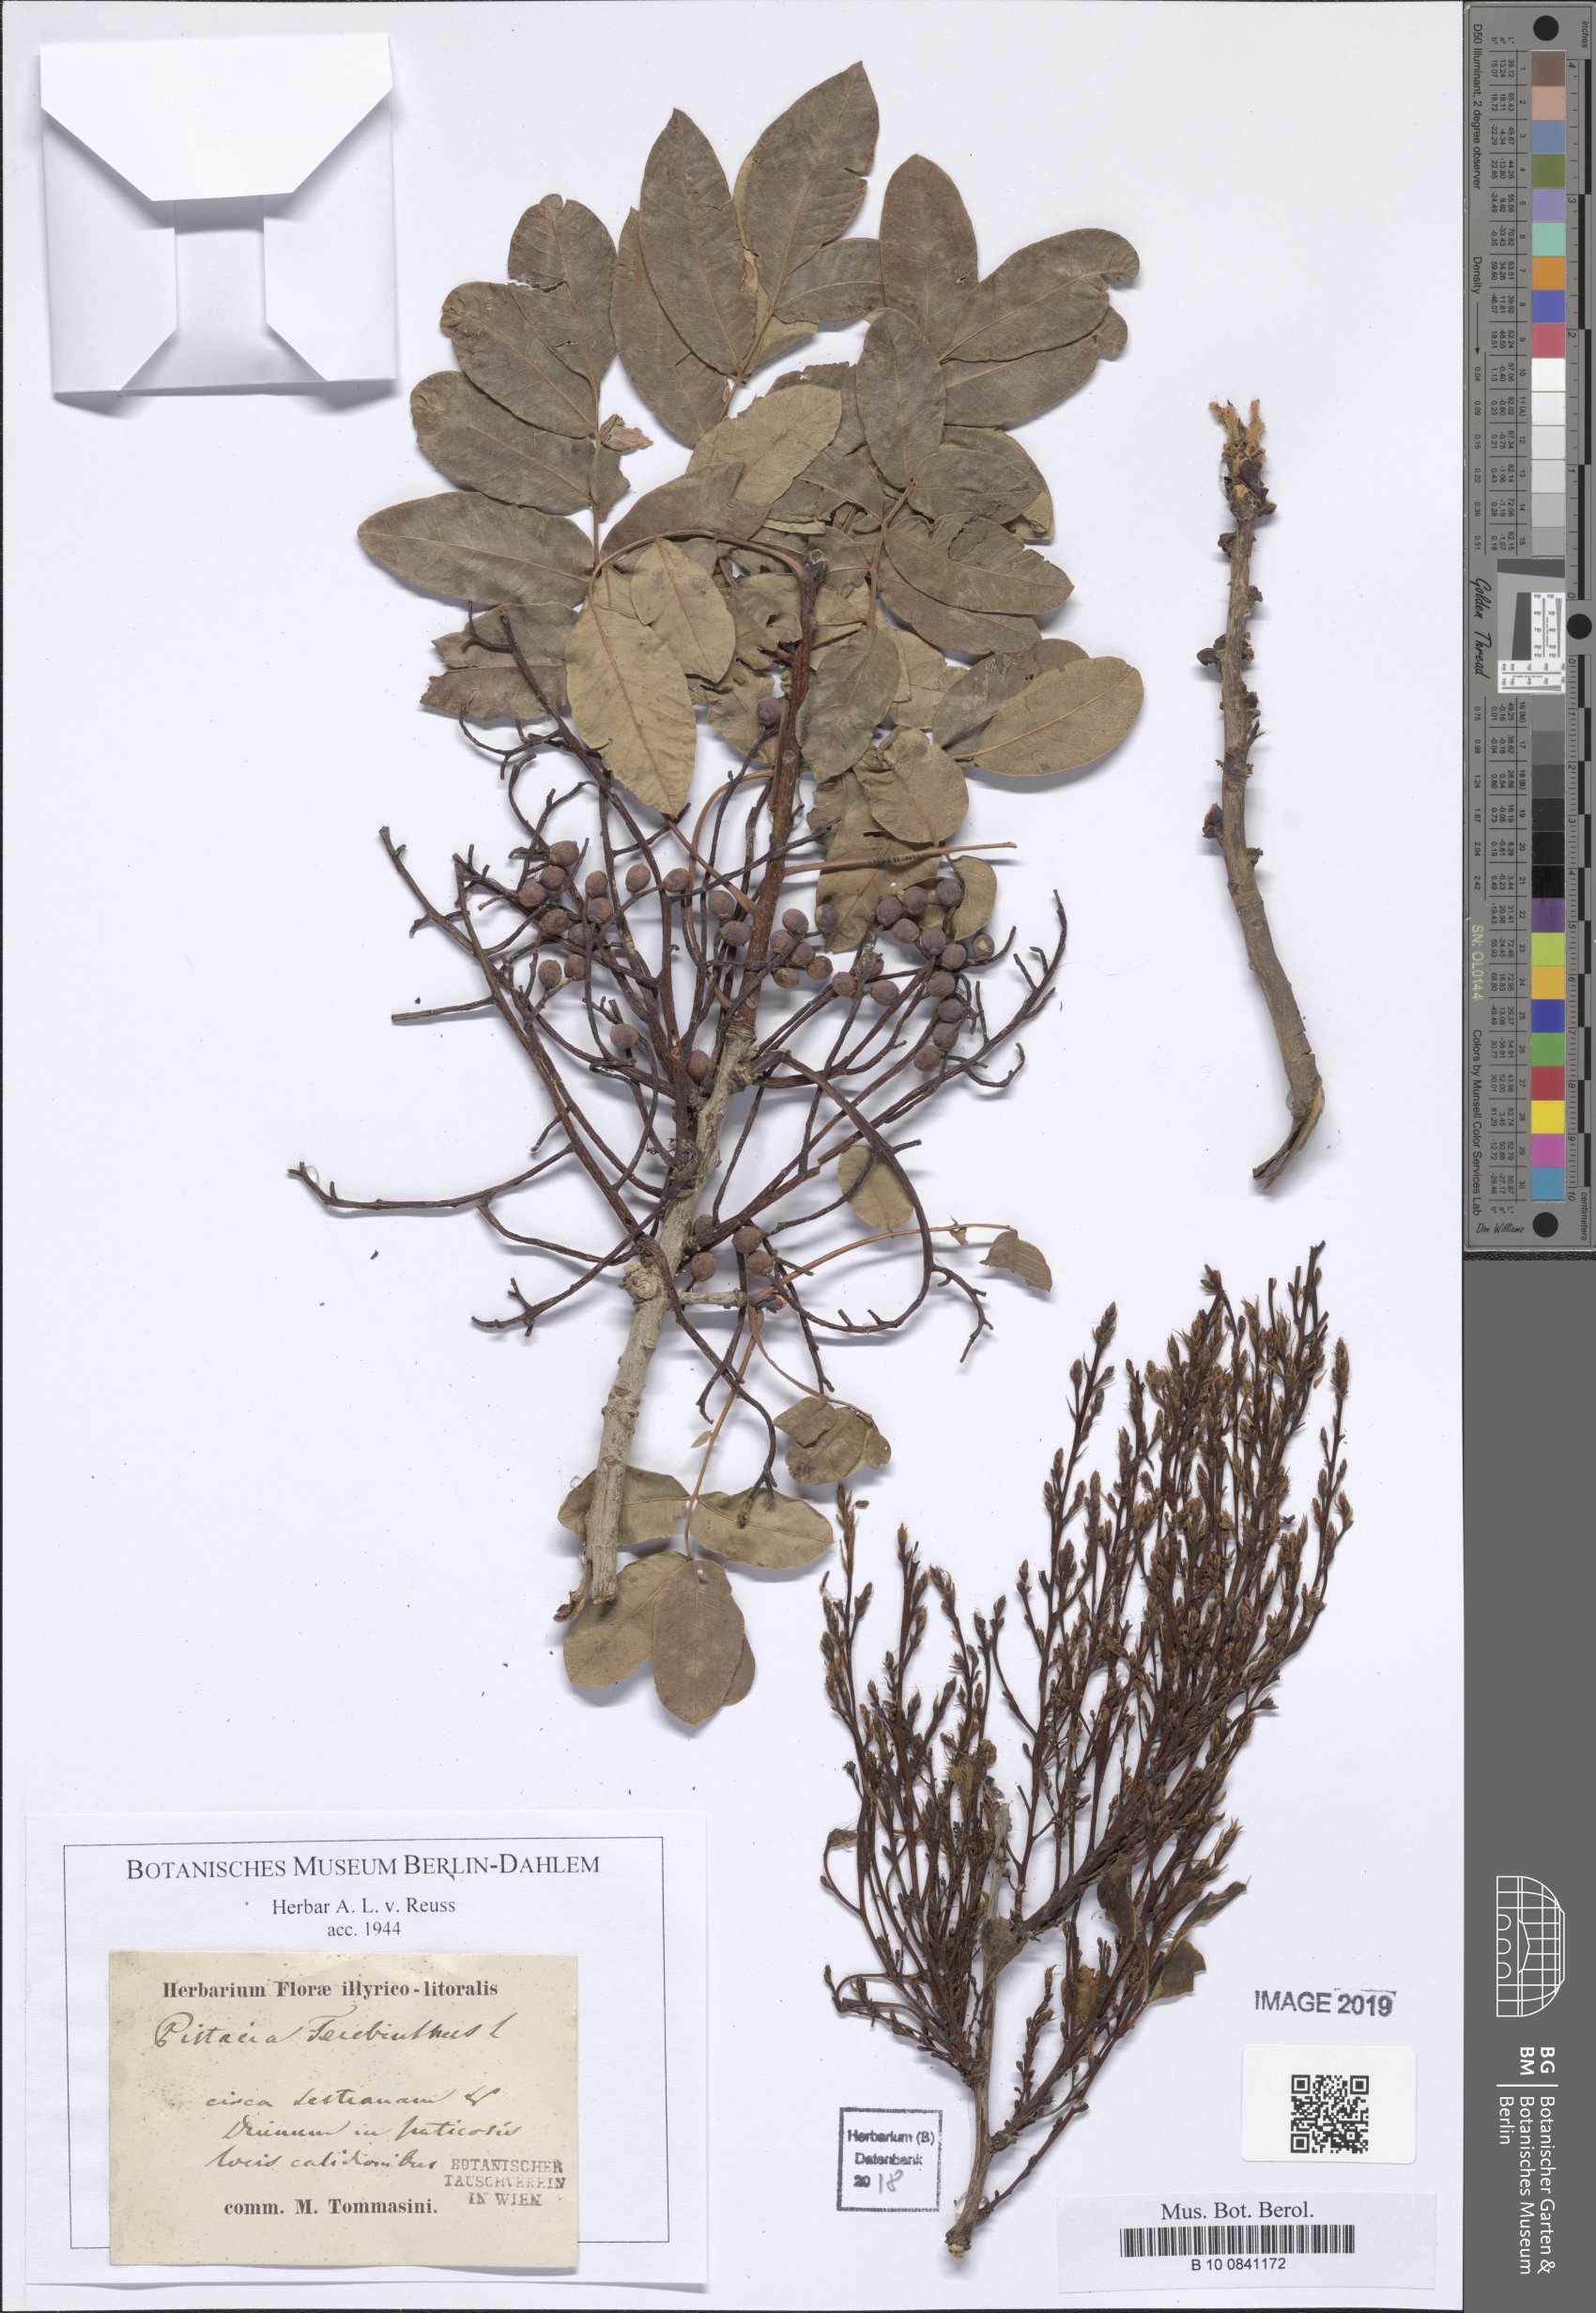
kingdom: Plantae
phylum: Tracheophyta
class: Magnoliopsida
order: Sapindales
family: Anacardiaceae
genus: Pistacia
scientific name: Pistacia terebinthus
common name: Terebinth
